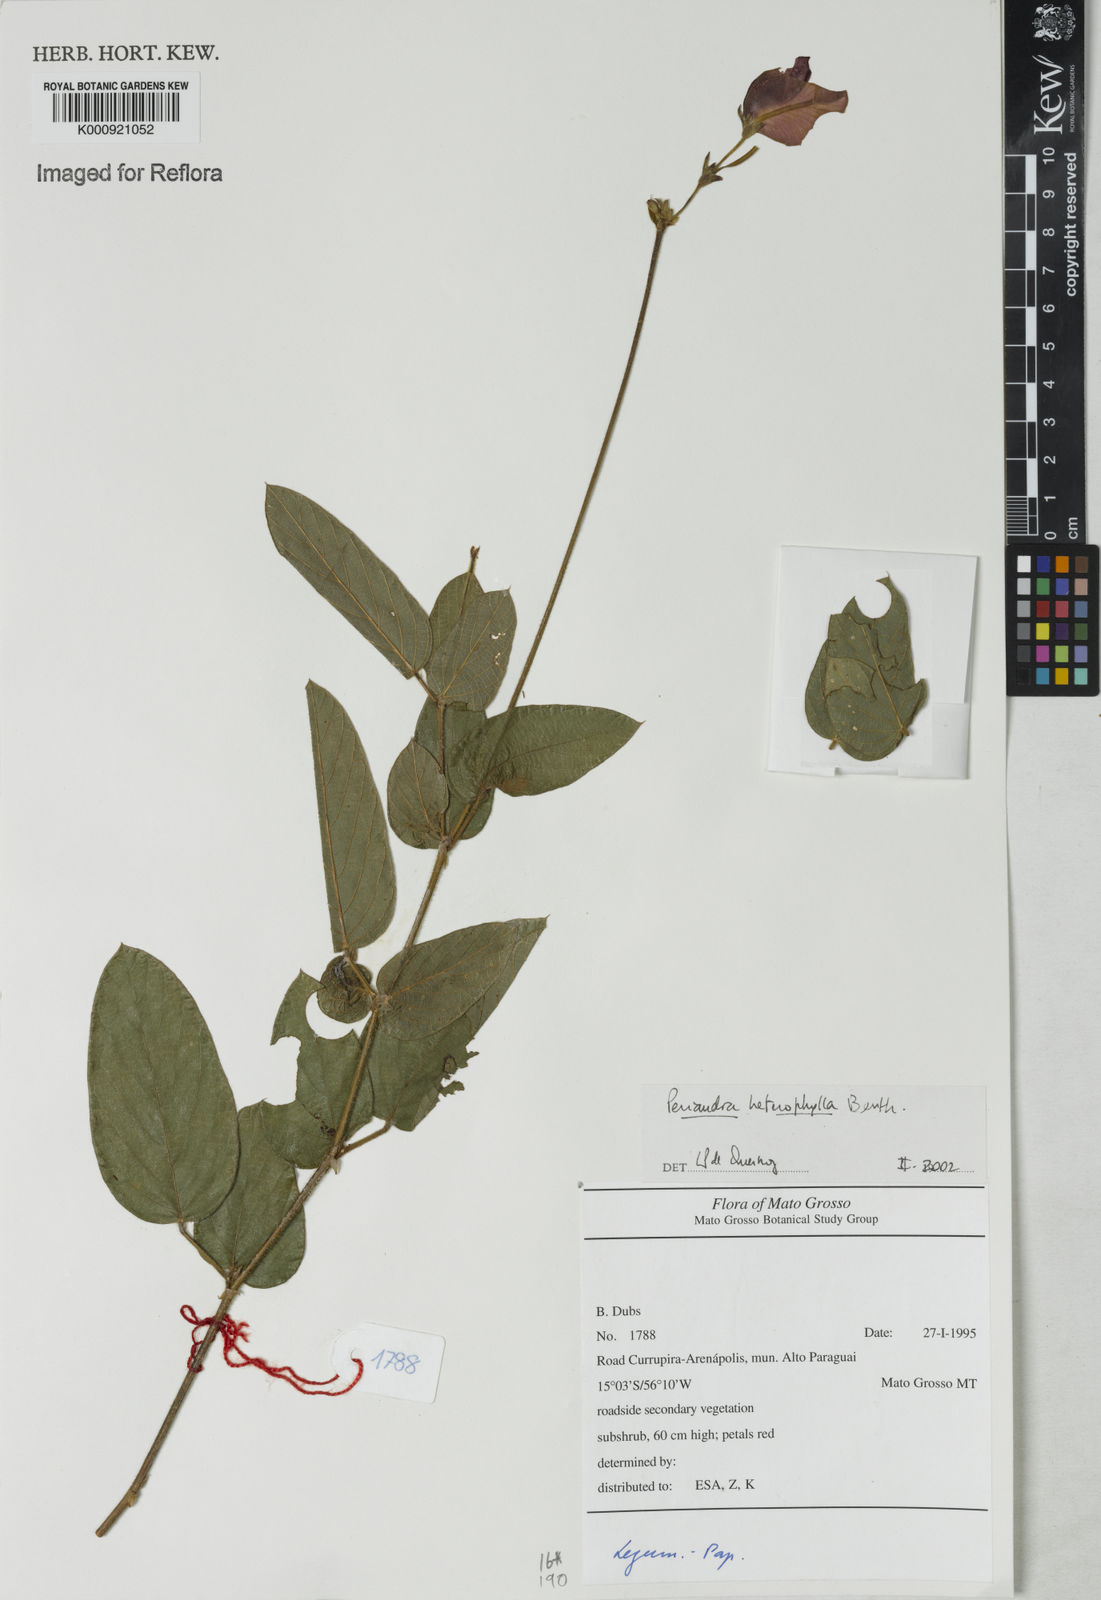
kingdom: Plantae
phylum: Tracheophyta
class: Magnoliopsida
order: Fabales
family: Fabaceae
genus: Periandra
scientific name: Periandra heterophylla
